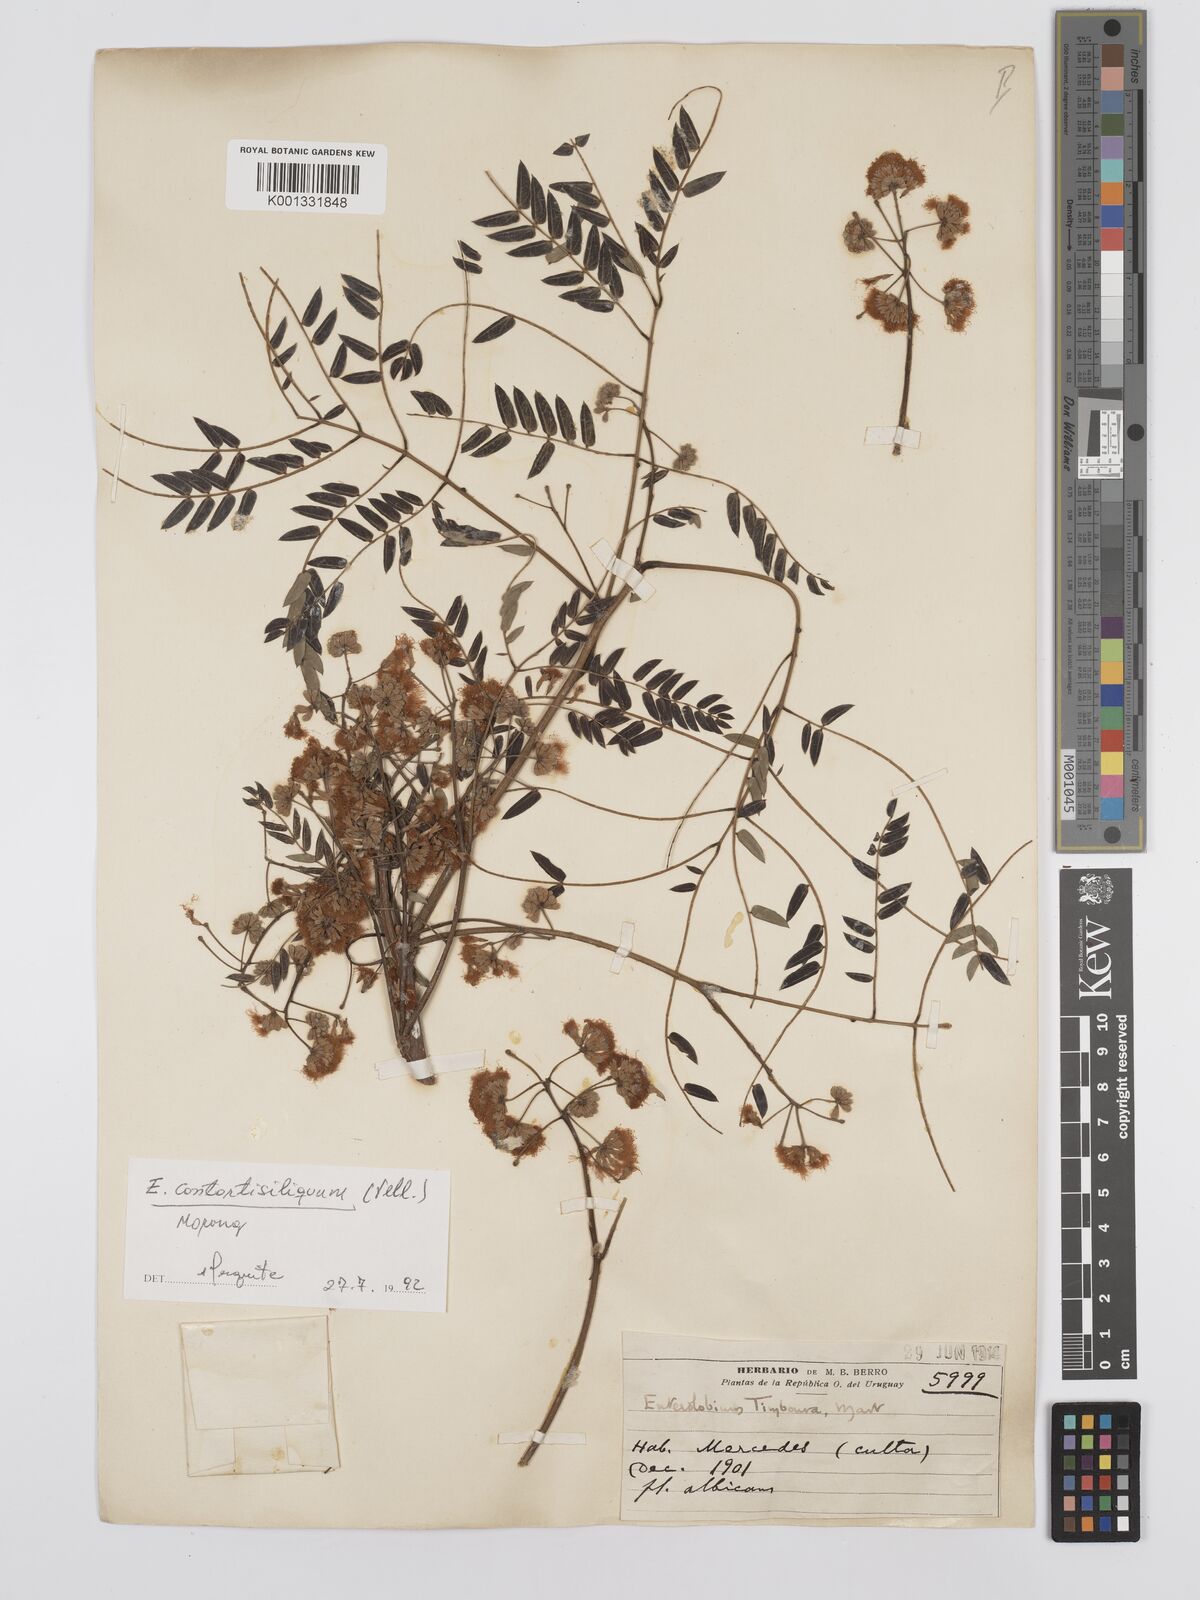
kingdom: Plantae
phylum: Tracheophyta
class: Magnoliopsida
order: Fabales
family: Fabaceae
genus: Enterolobium
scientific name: Enterolobium contortisiliquum
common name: Pacara earpod tree
